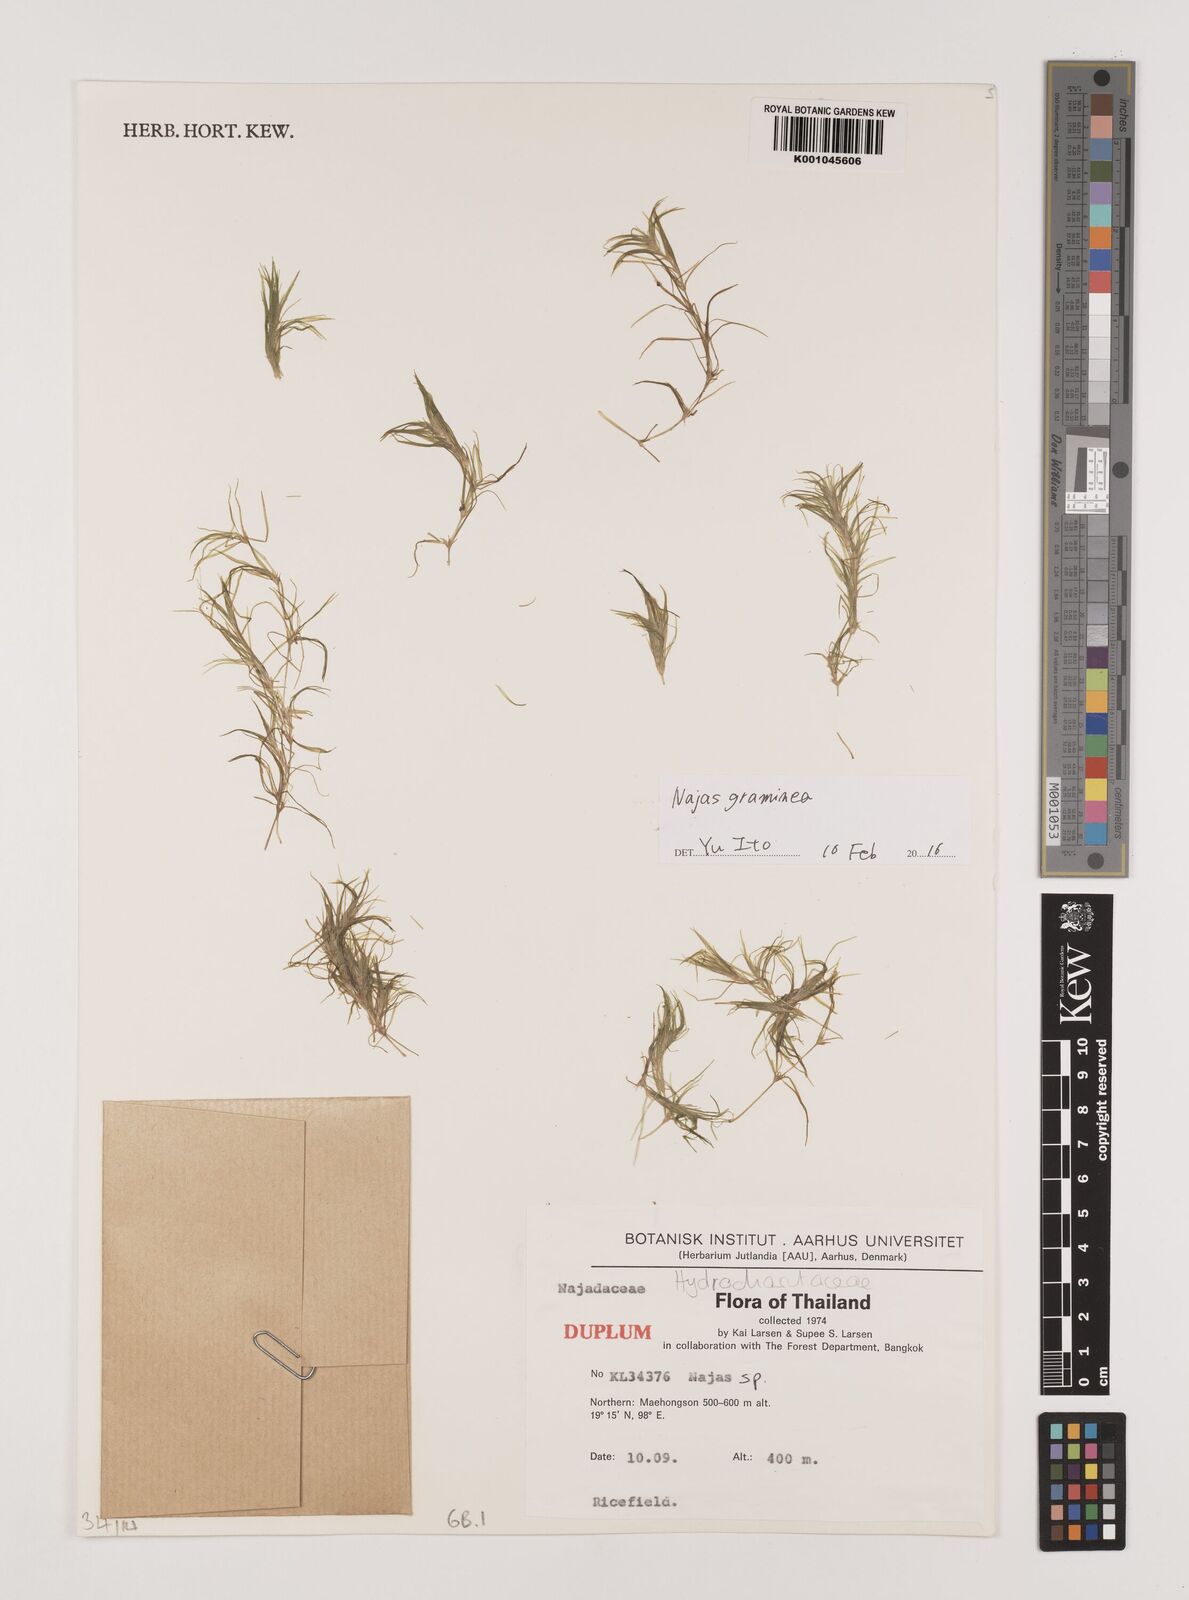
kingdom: Plantae
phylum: Tracheophyta
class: Liliopsida
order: Alismatales
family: Hydrocharitaceae
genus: Najas
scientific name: Najas graminea
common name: Ricefield waternymph
